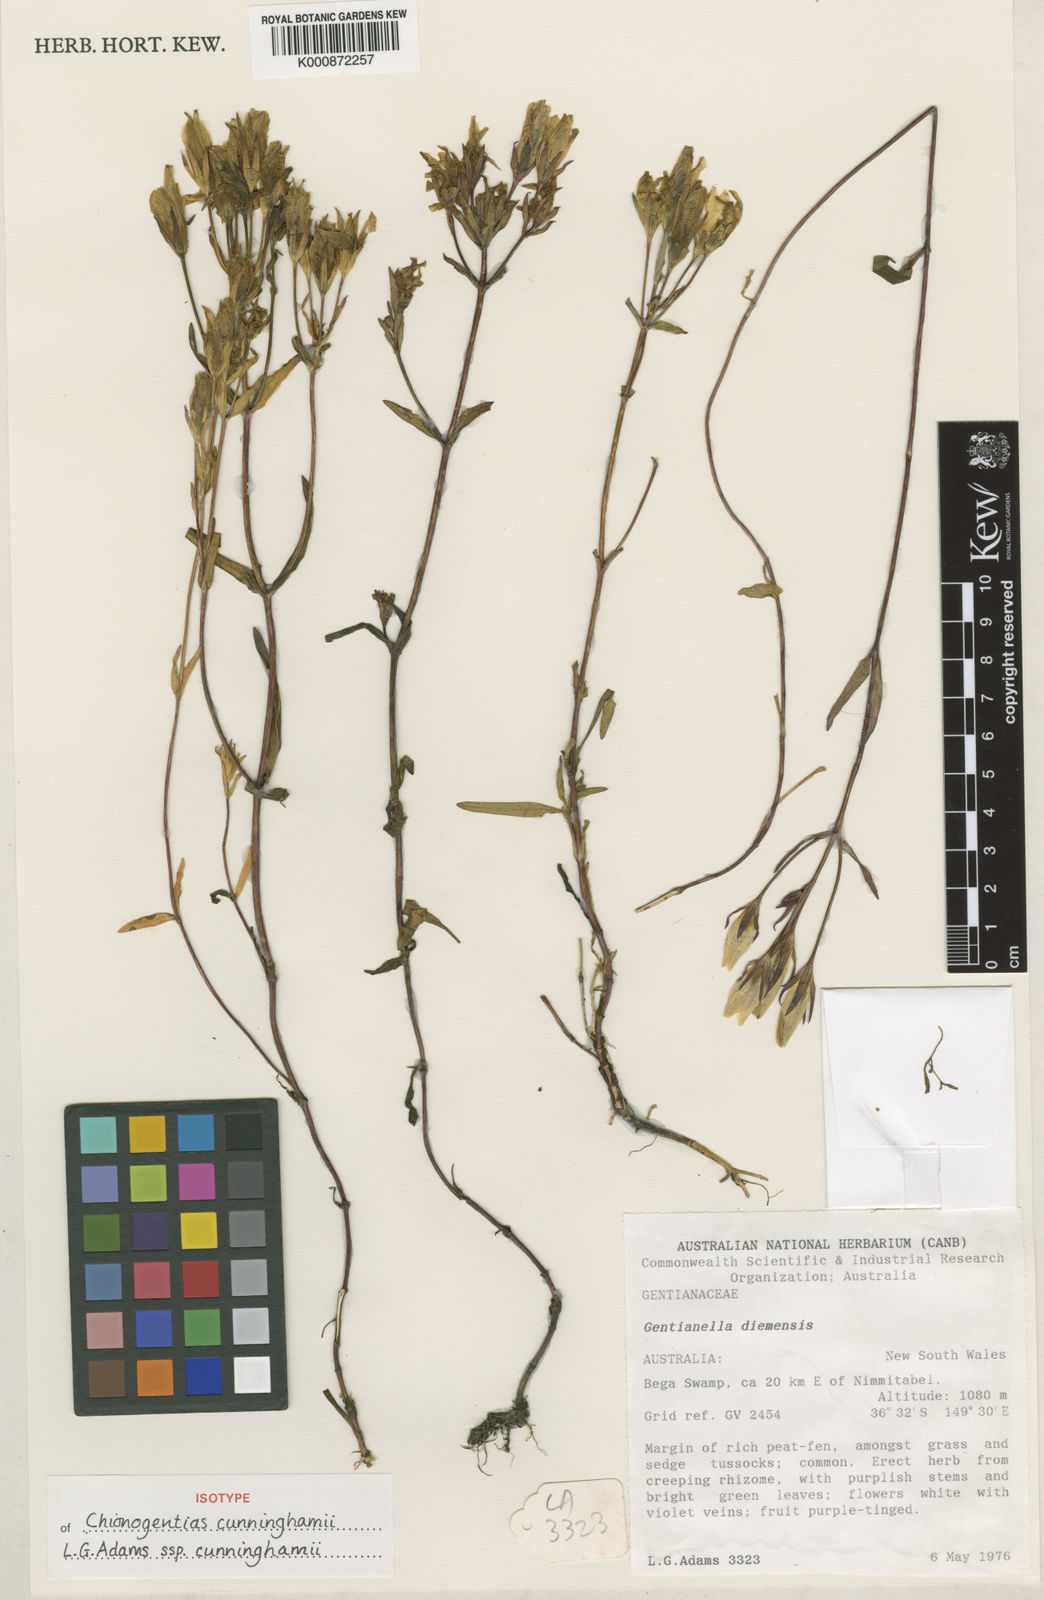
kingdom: Plantae
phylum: Tracheophyta
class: Magnoliopsida
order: Gentianales
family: Gentianaceae
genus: Gentianella
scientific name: Gentianella cunninghamii
